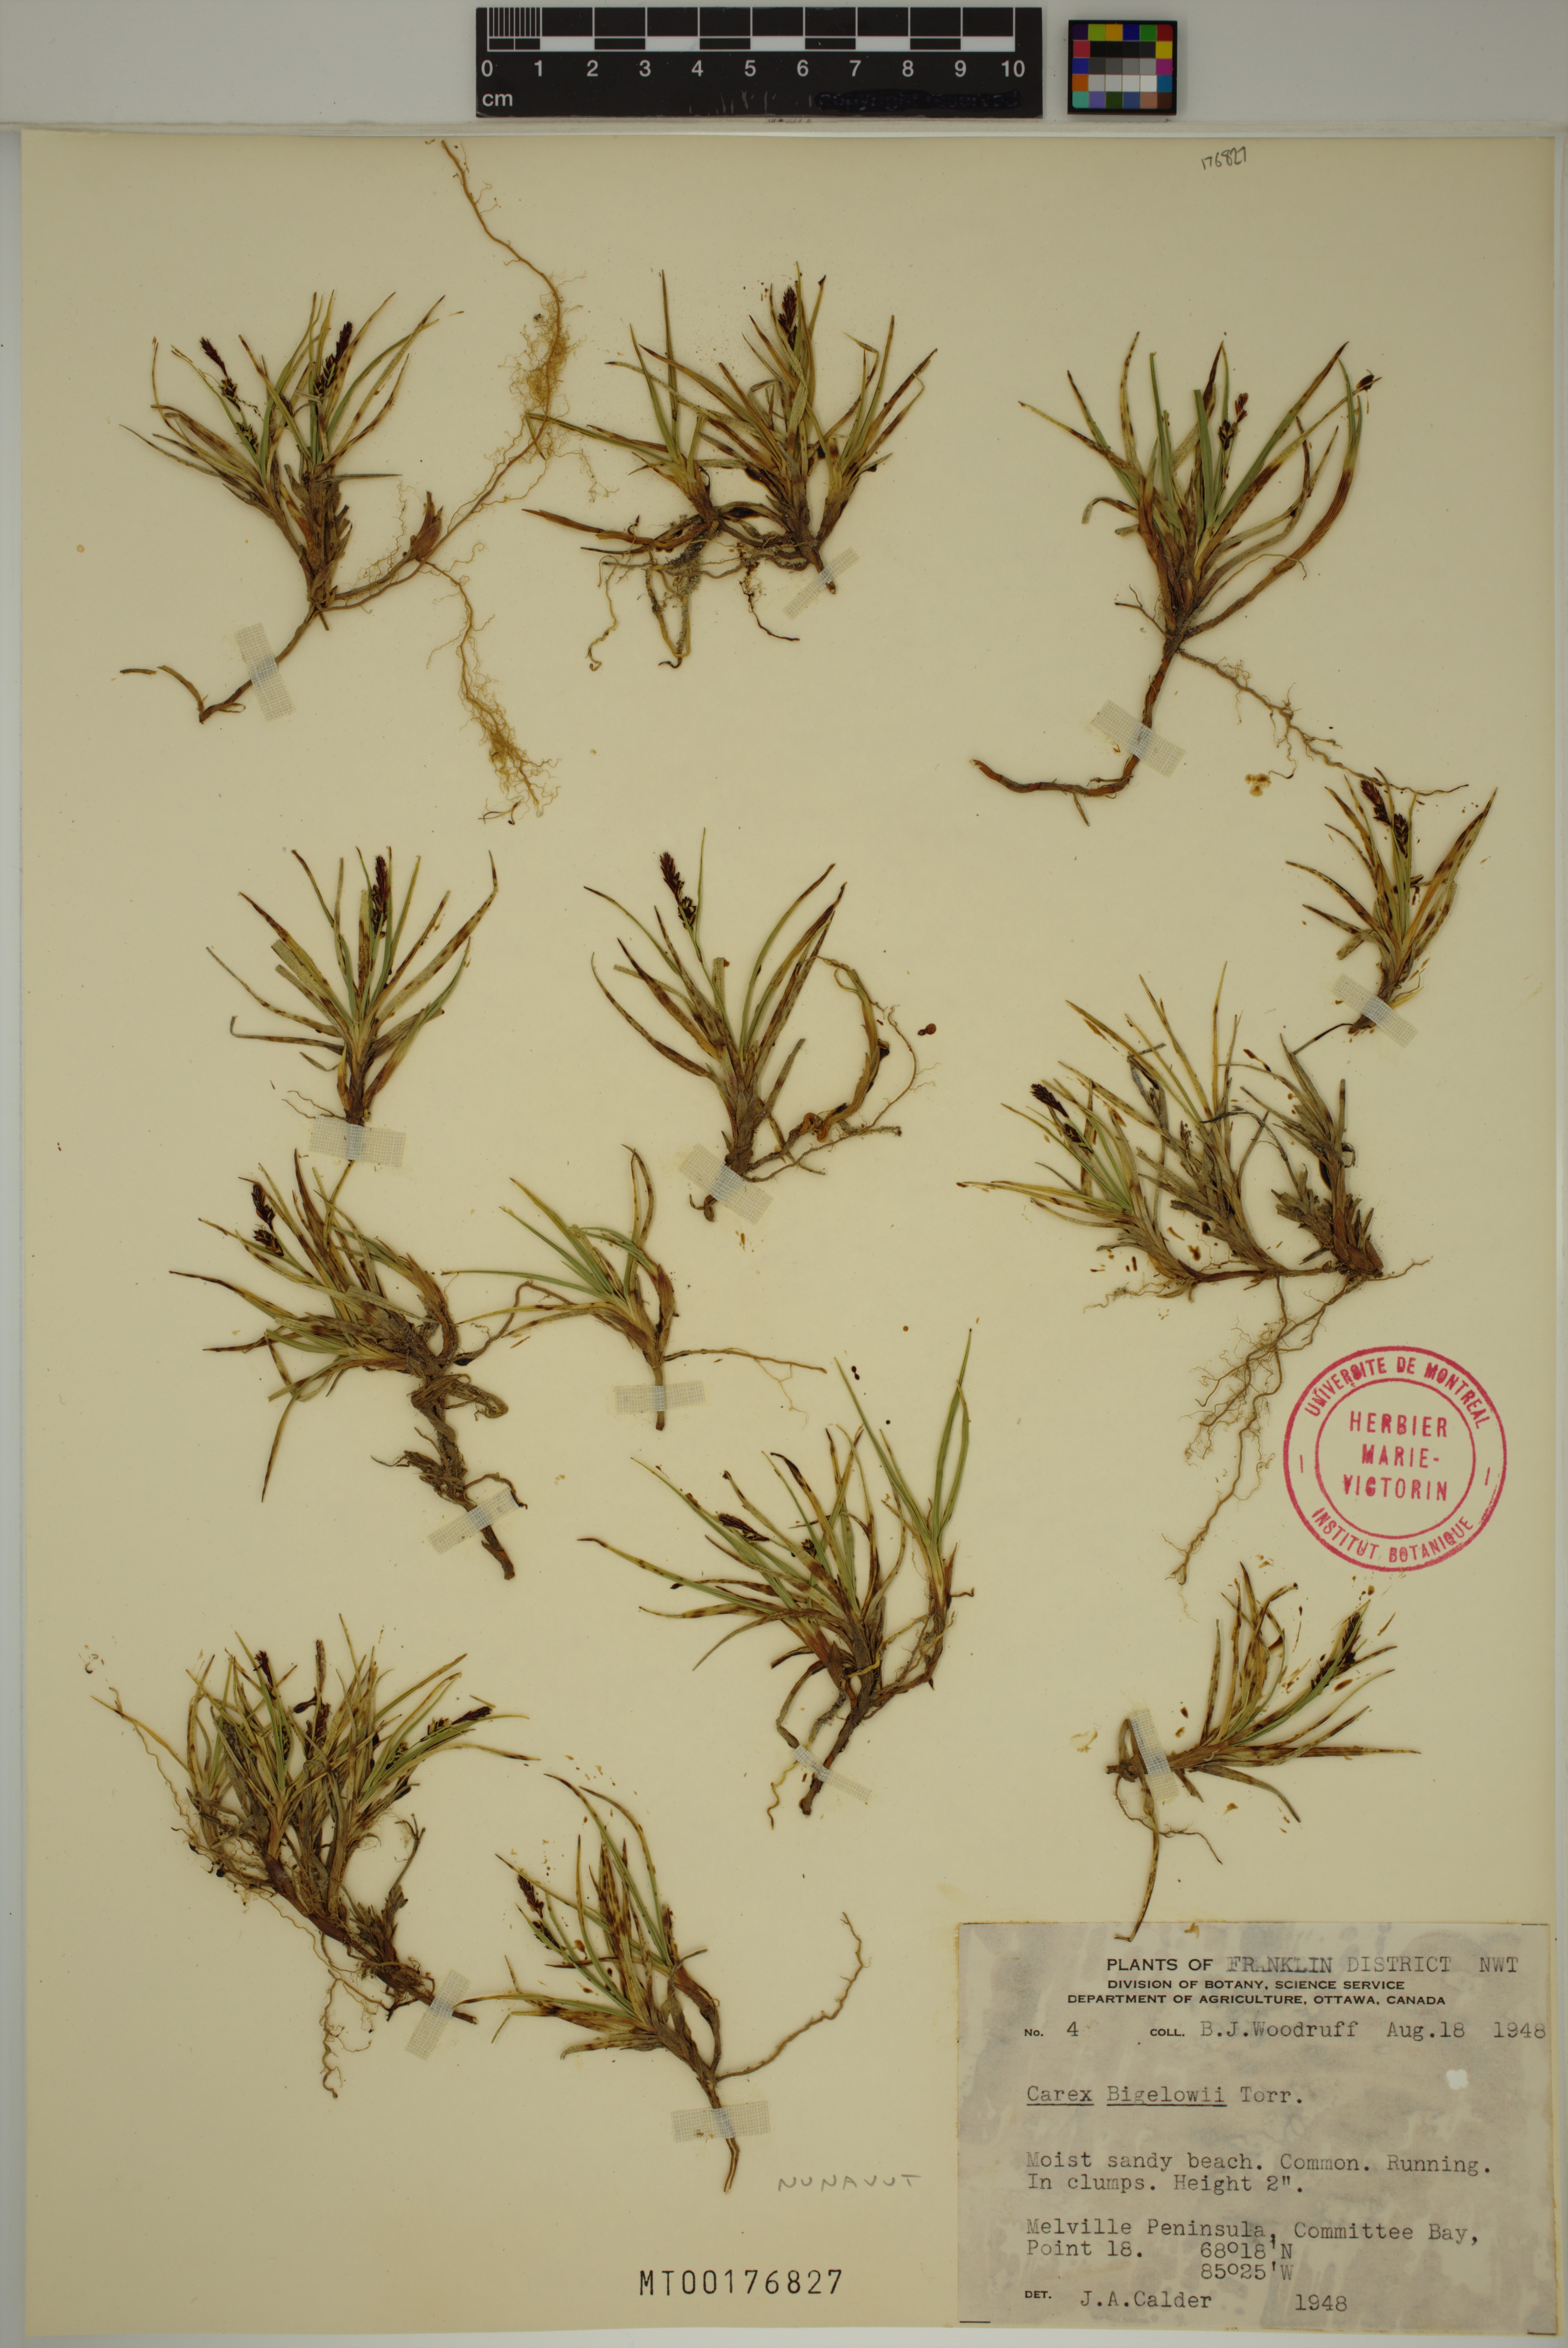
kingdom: Plantae
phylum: Tracheophyta
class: Liliopsida
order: Poales
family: Cyperaceae
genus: Carex
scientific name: Carex bigelowii
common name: Stiff sedge
